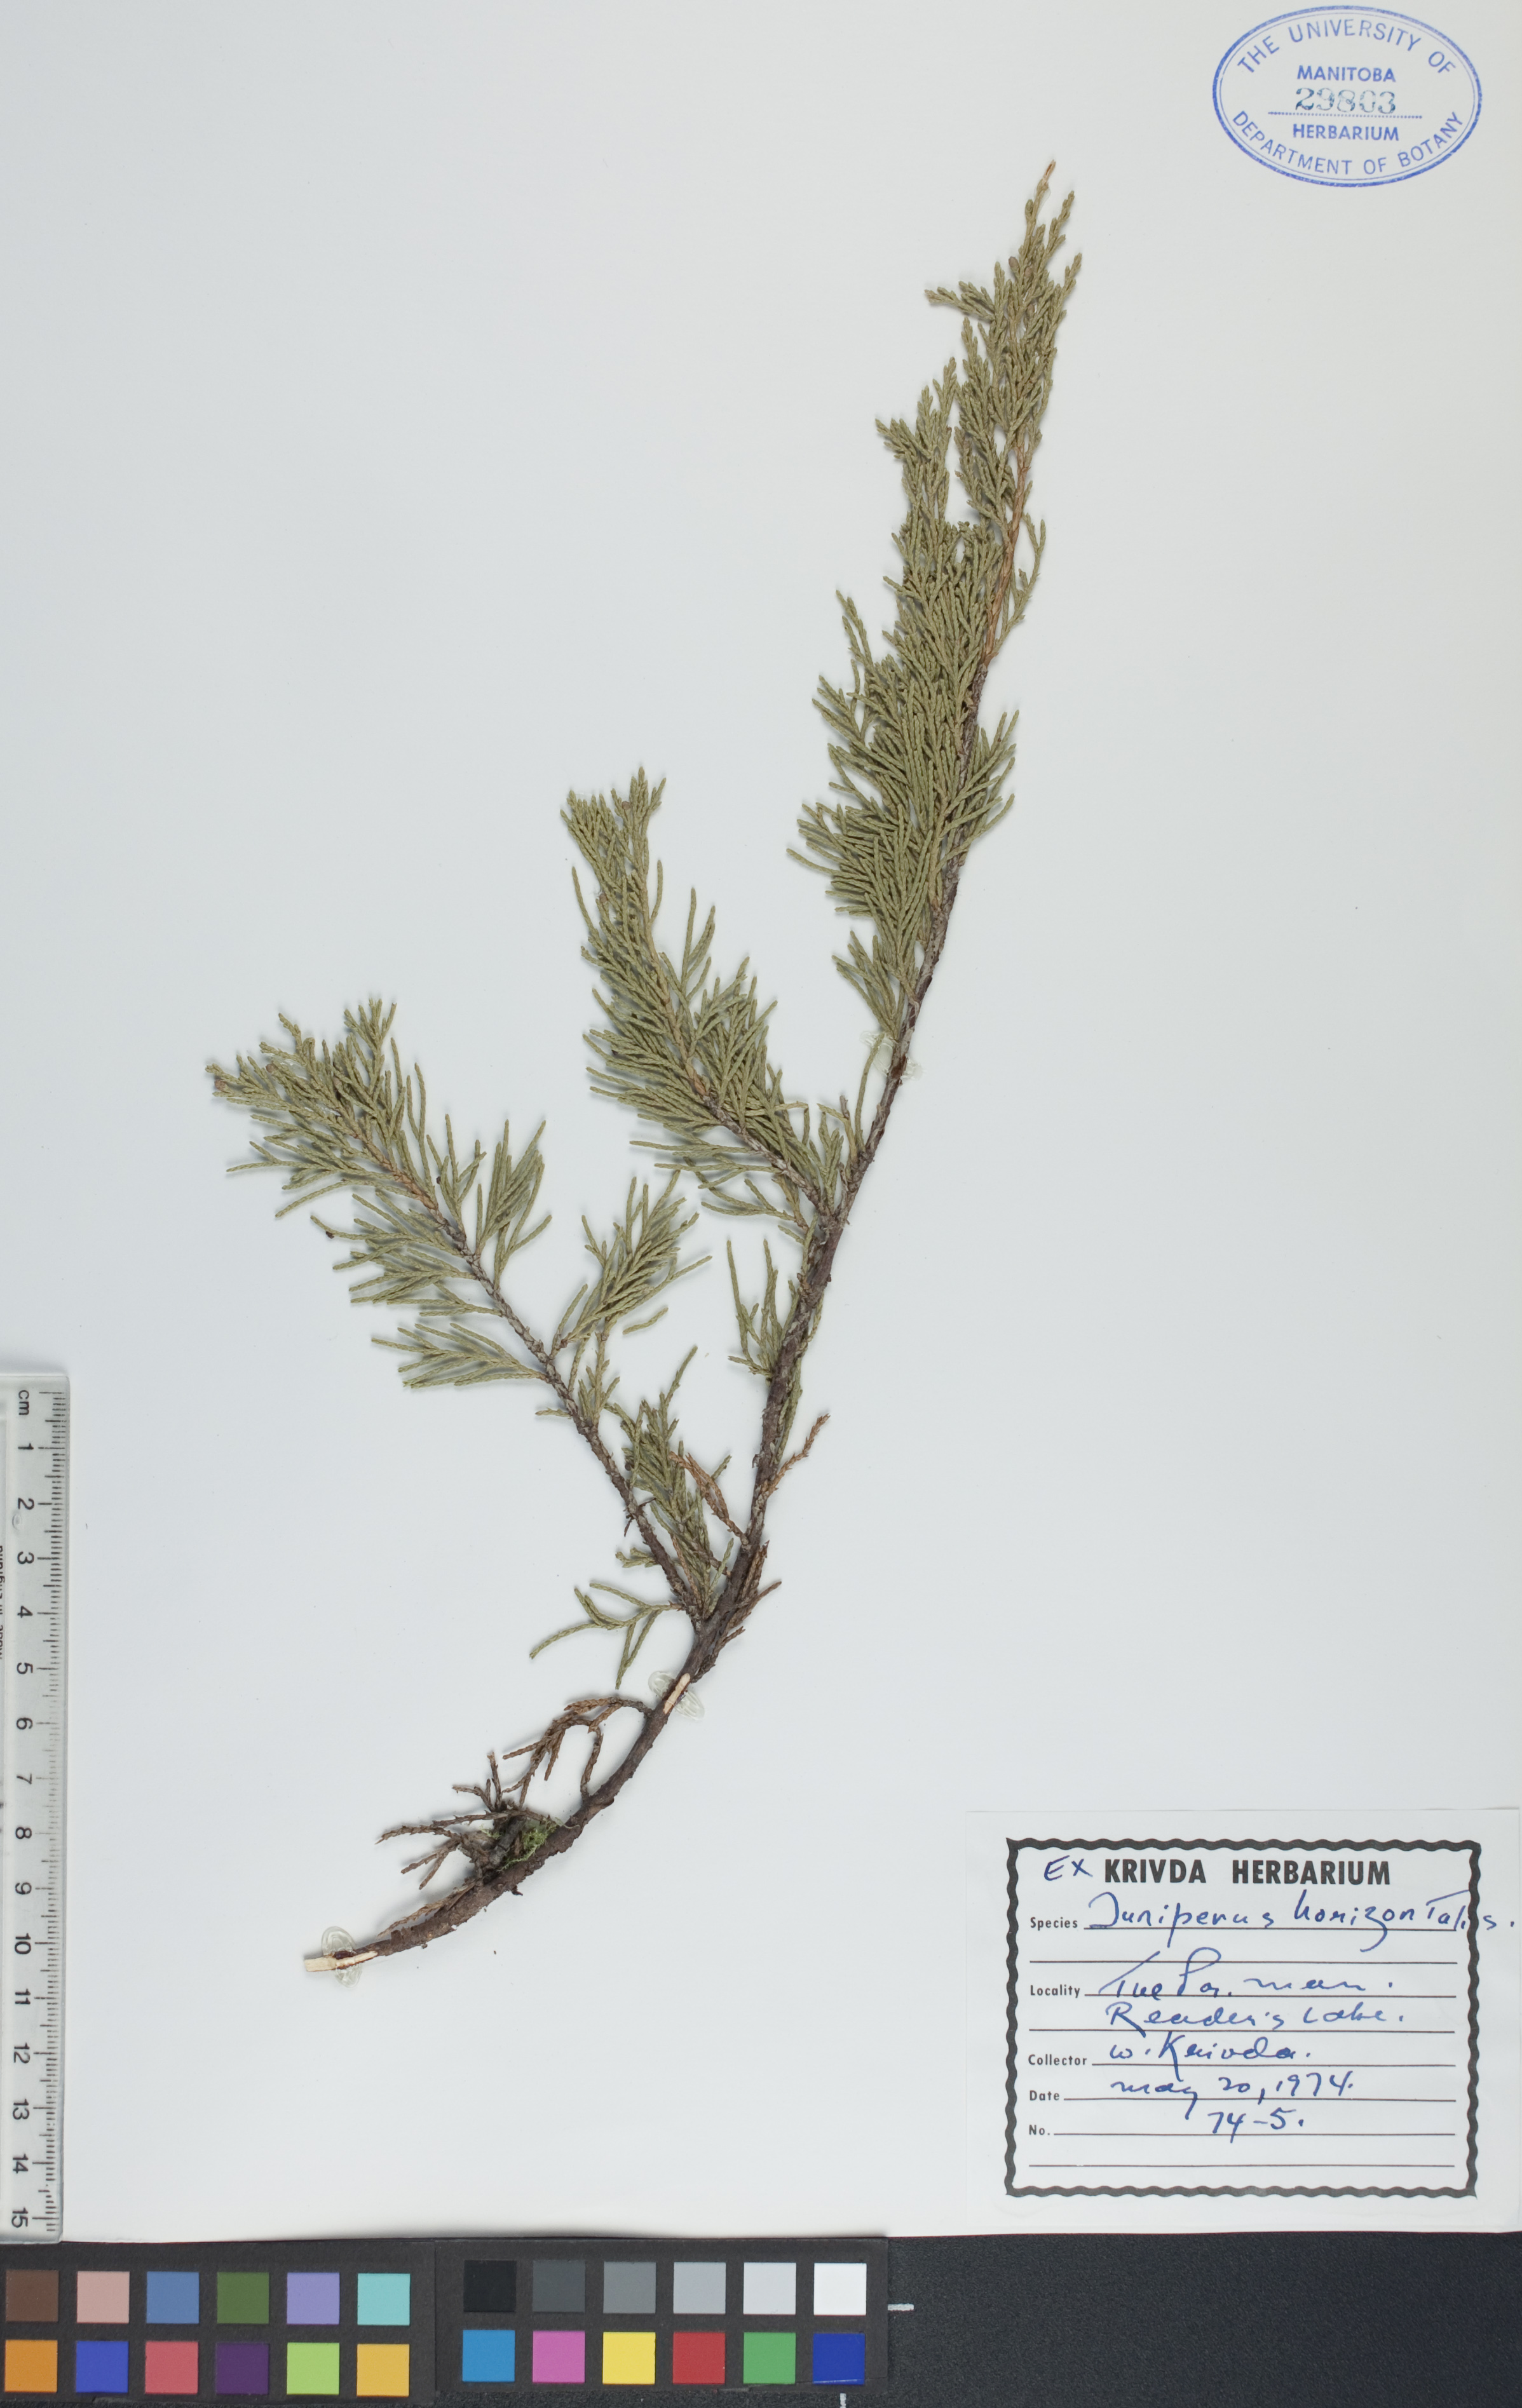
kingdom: Plantae
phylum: Tracheophyta
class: Pinopsida
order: Pinales
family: Cupressaceae
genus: Juniperus
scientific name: Juniperus horizontalis
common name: Creeping juniper
